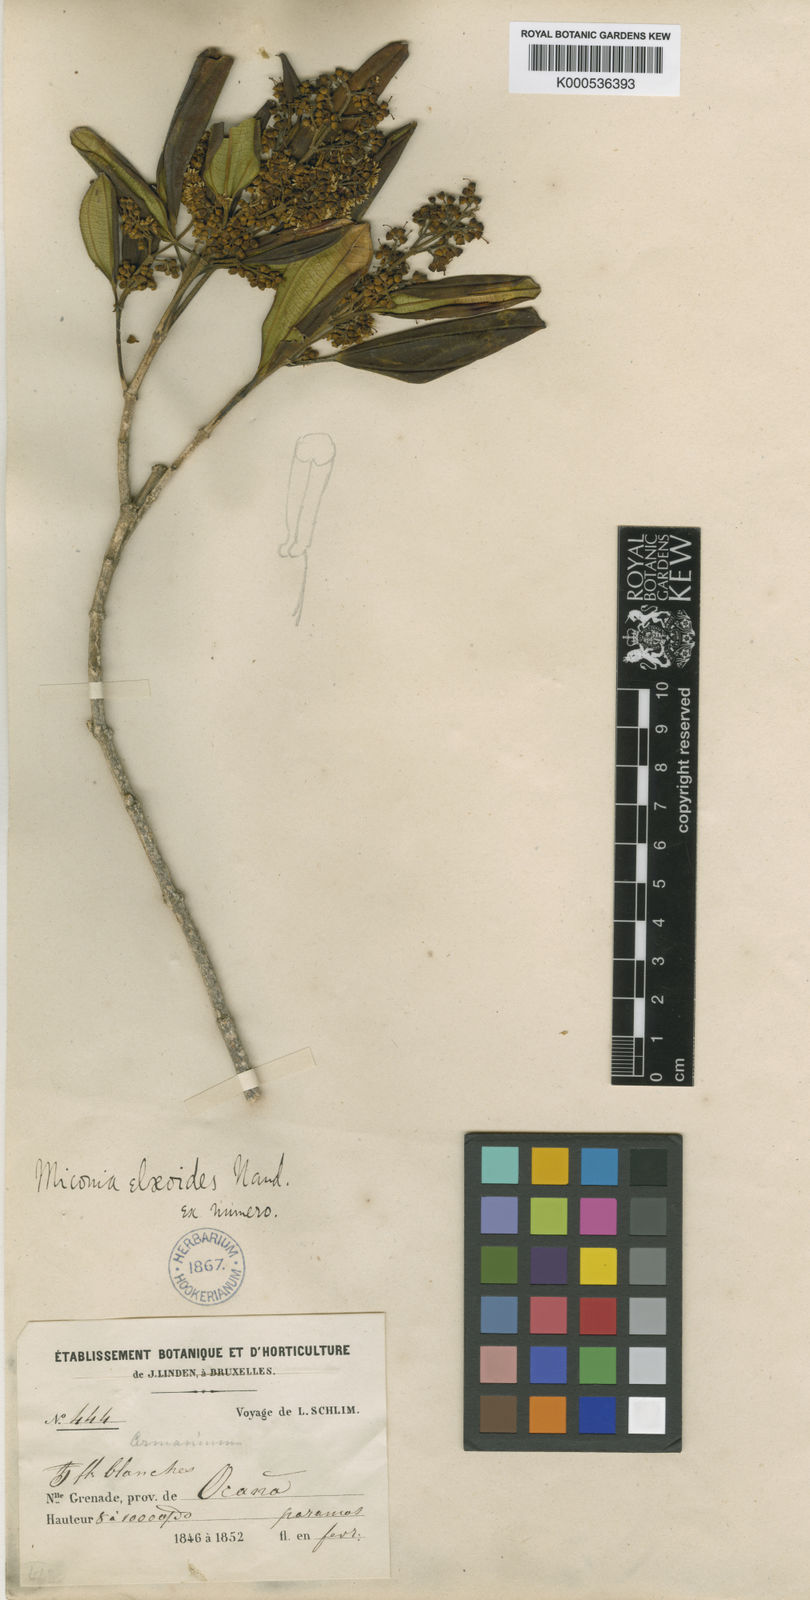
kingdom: Plantae
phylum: Tracheophyta
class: Magnoliopsida
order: Myrtales
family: Melastomataceae
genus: Miconia
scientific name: Miconia elaeoides
